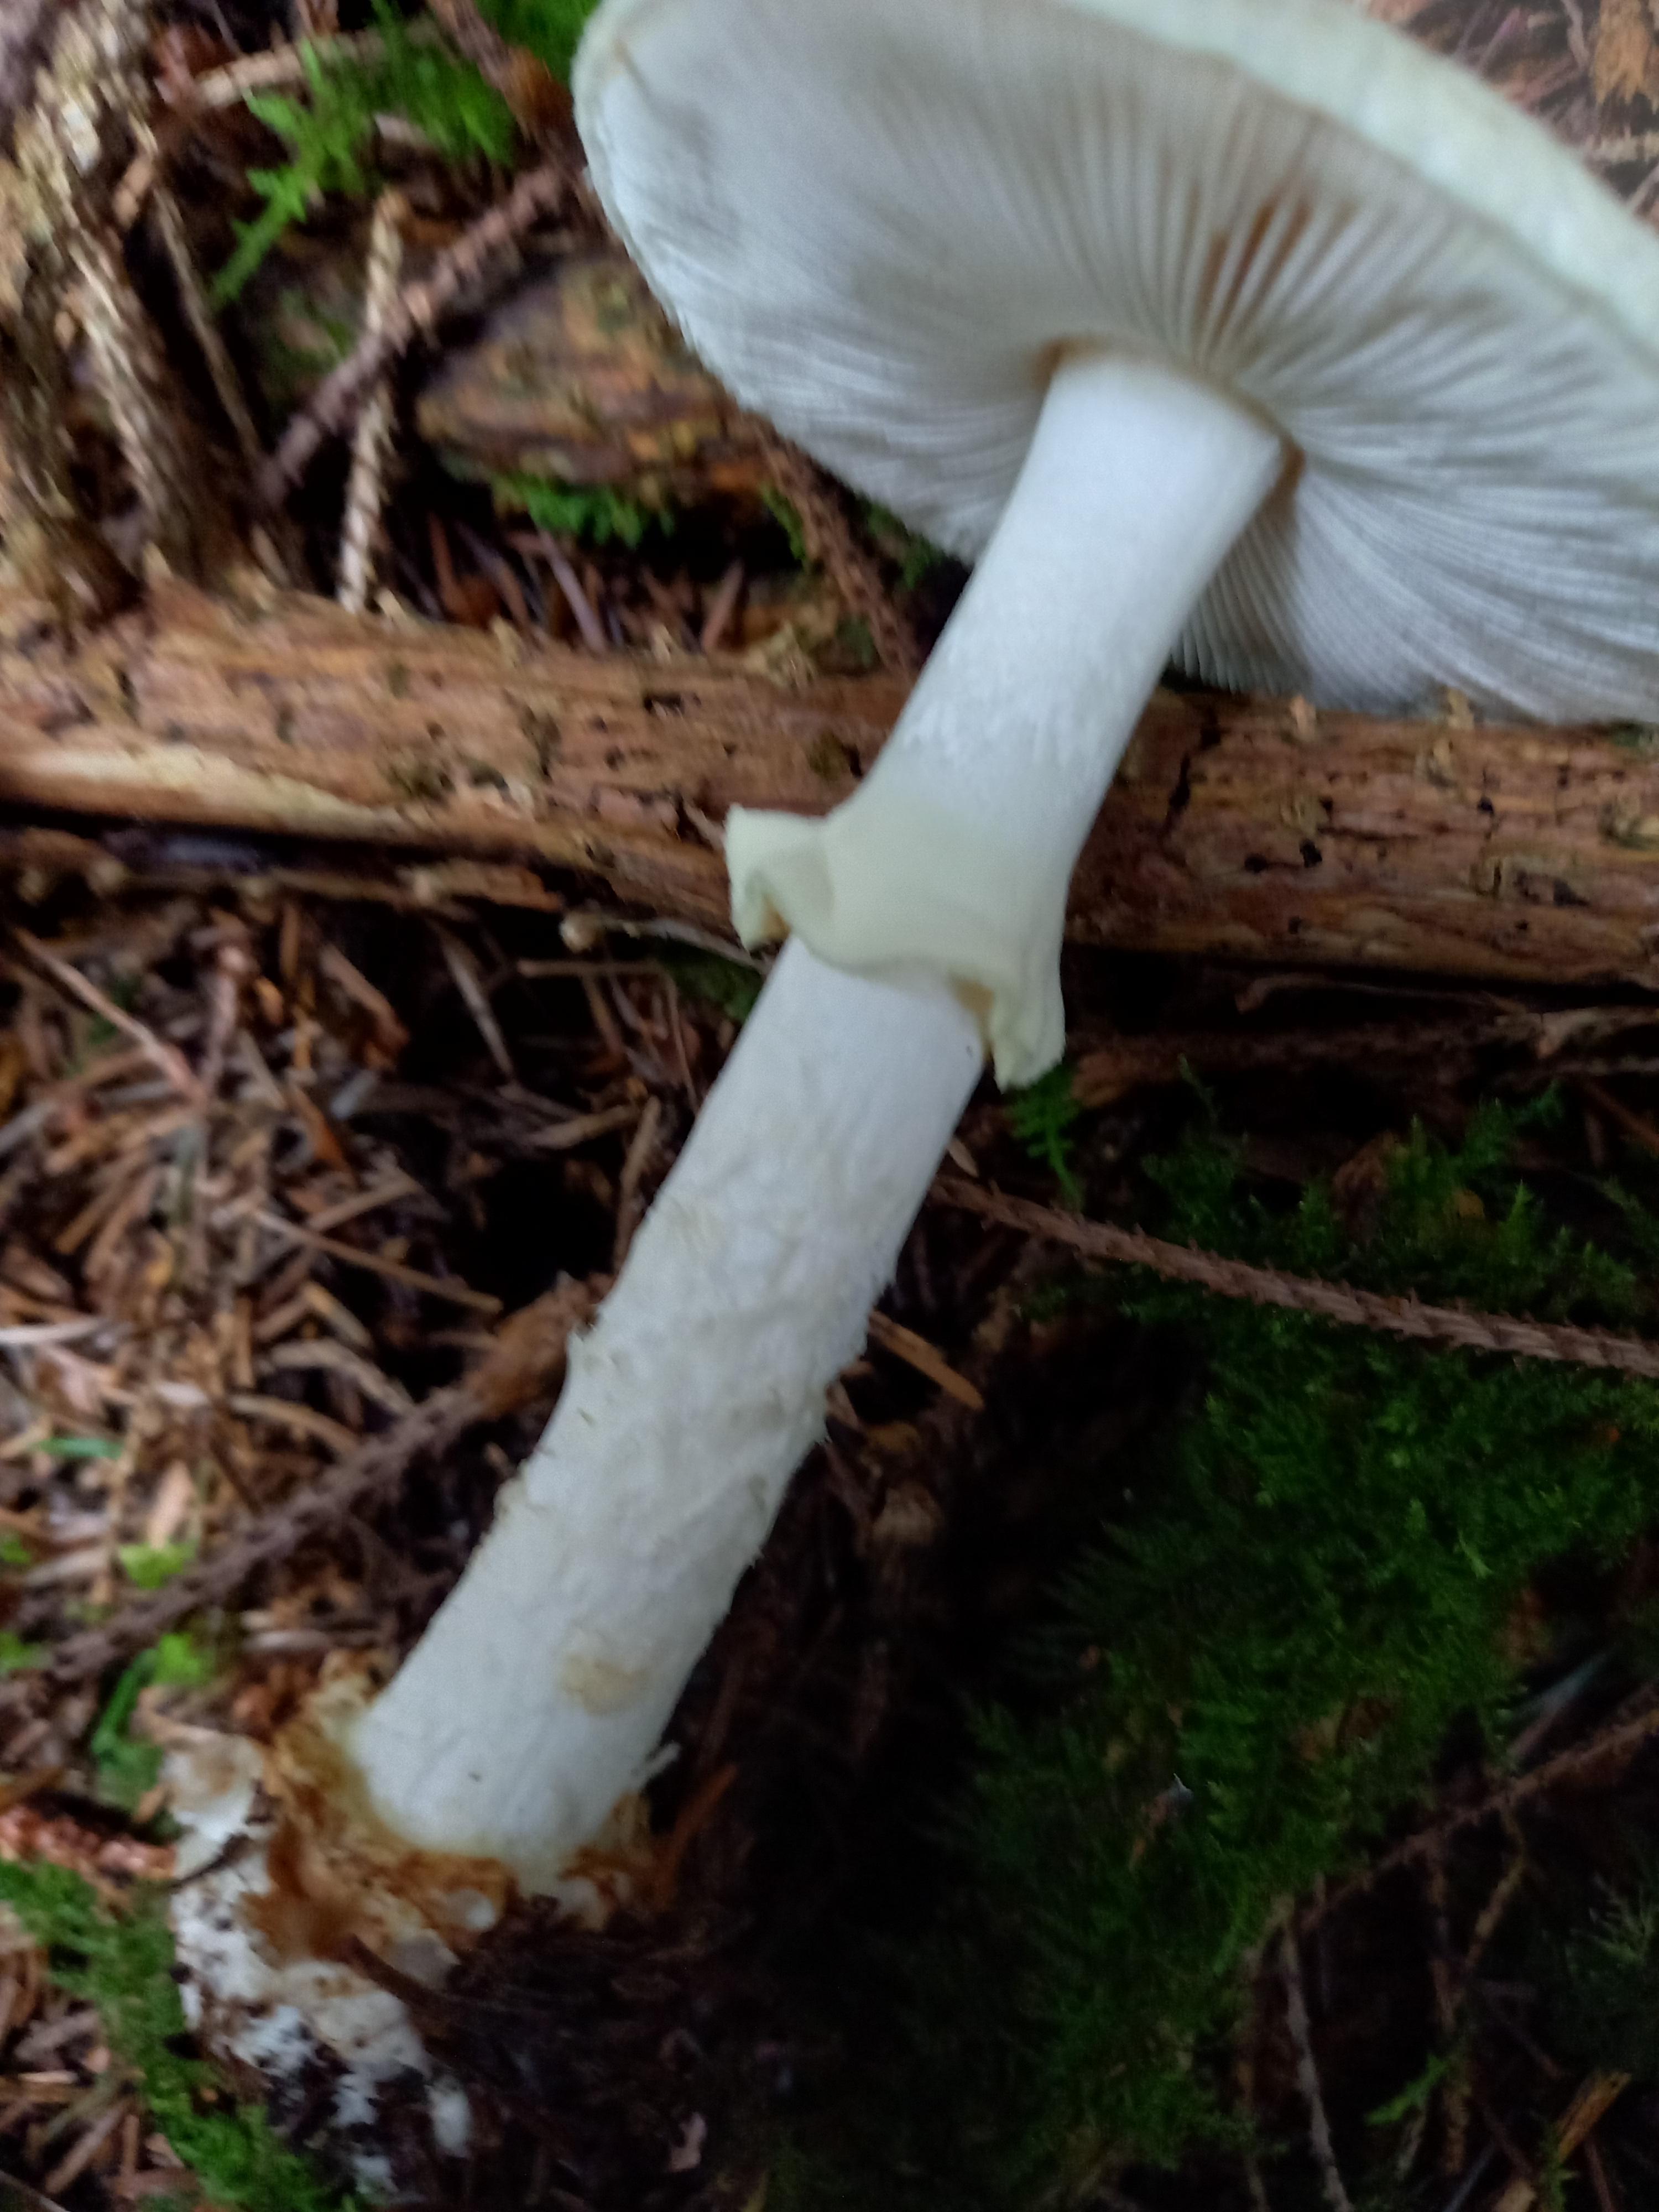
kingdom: Fungi
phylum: Basidiomycota
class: Agaricomycetes
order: Agaricales
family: Amanitaceae
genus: Amanita
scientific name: Amanita citrina
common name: False death-cap
